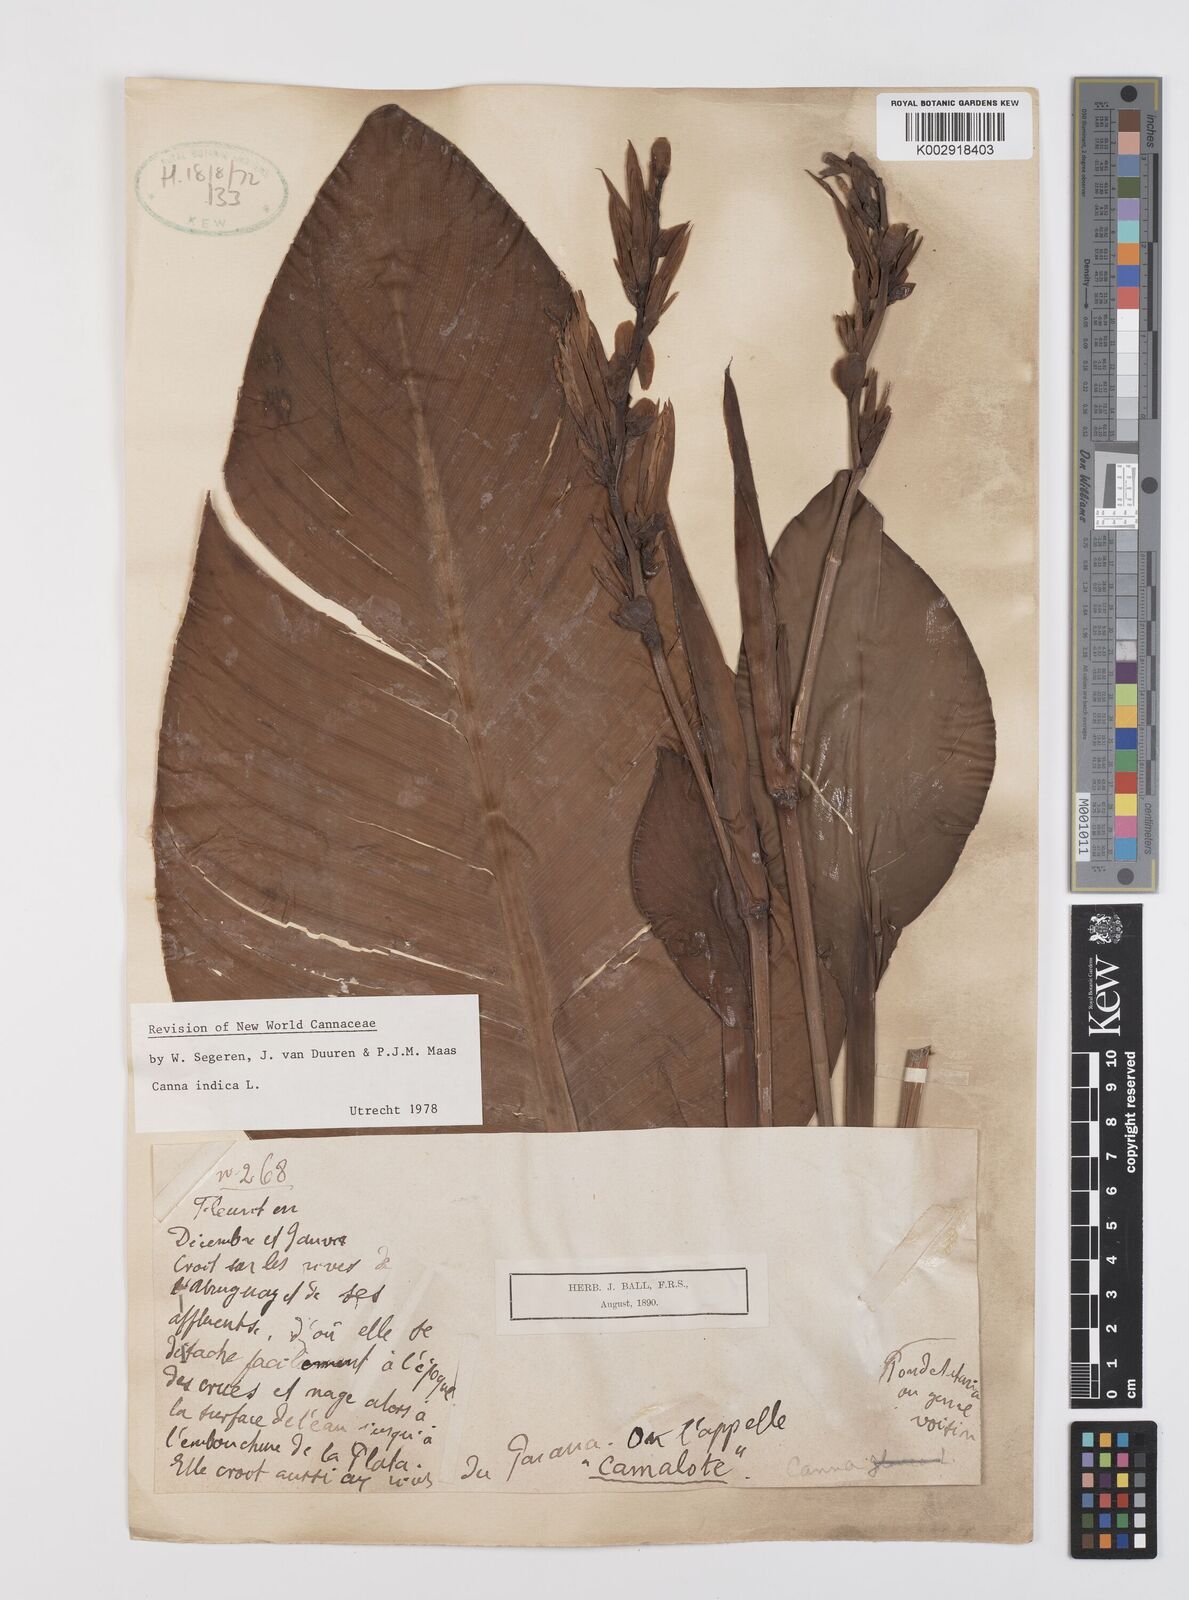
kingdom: Plantae
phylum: Tracheophyta
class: Liliopsida
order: Zingiberales
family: Cannaceae
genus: Canna
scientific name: Canna indica
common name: Indian shot
